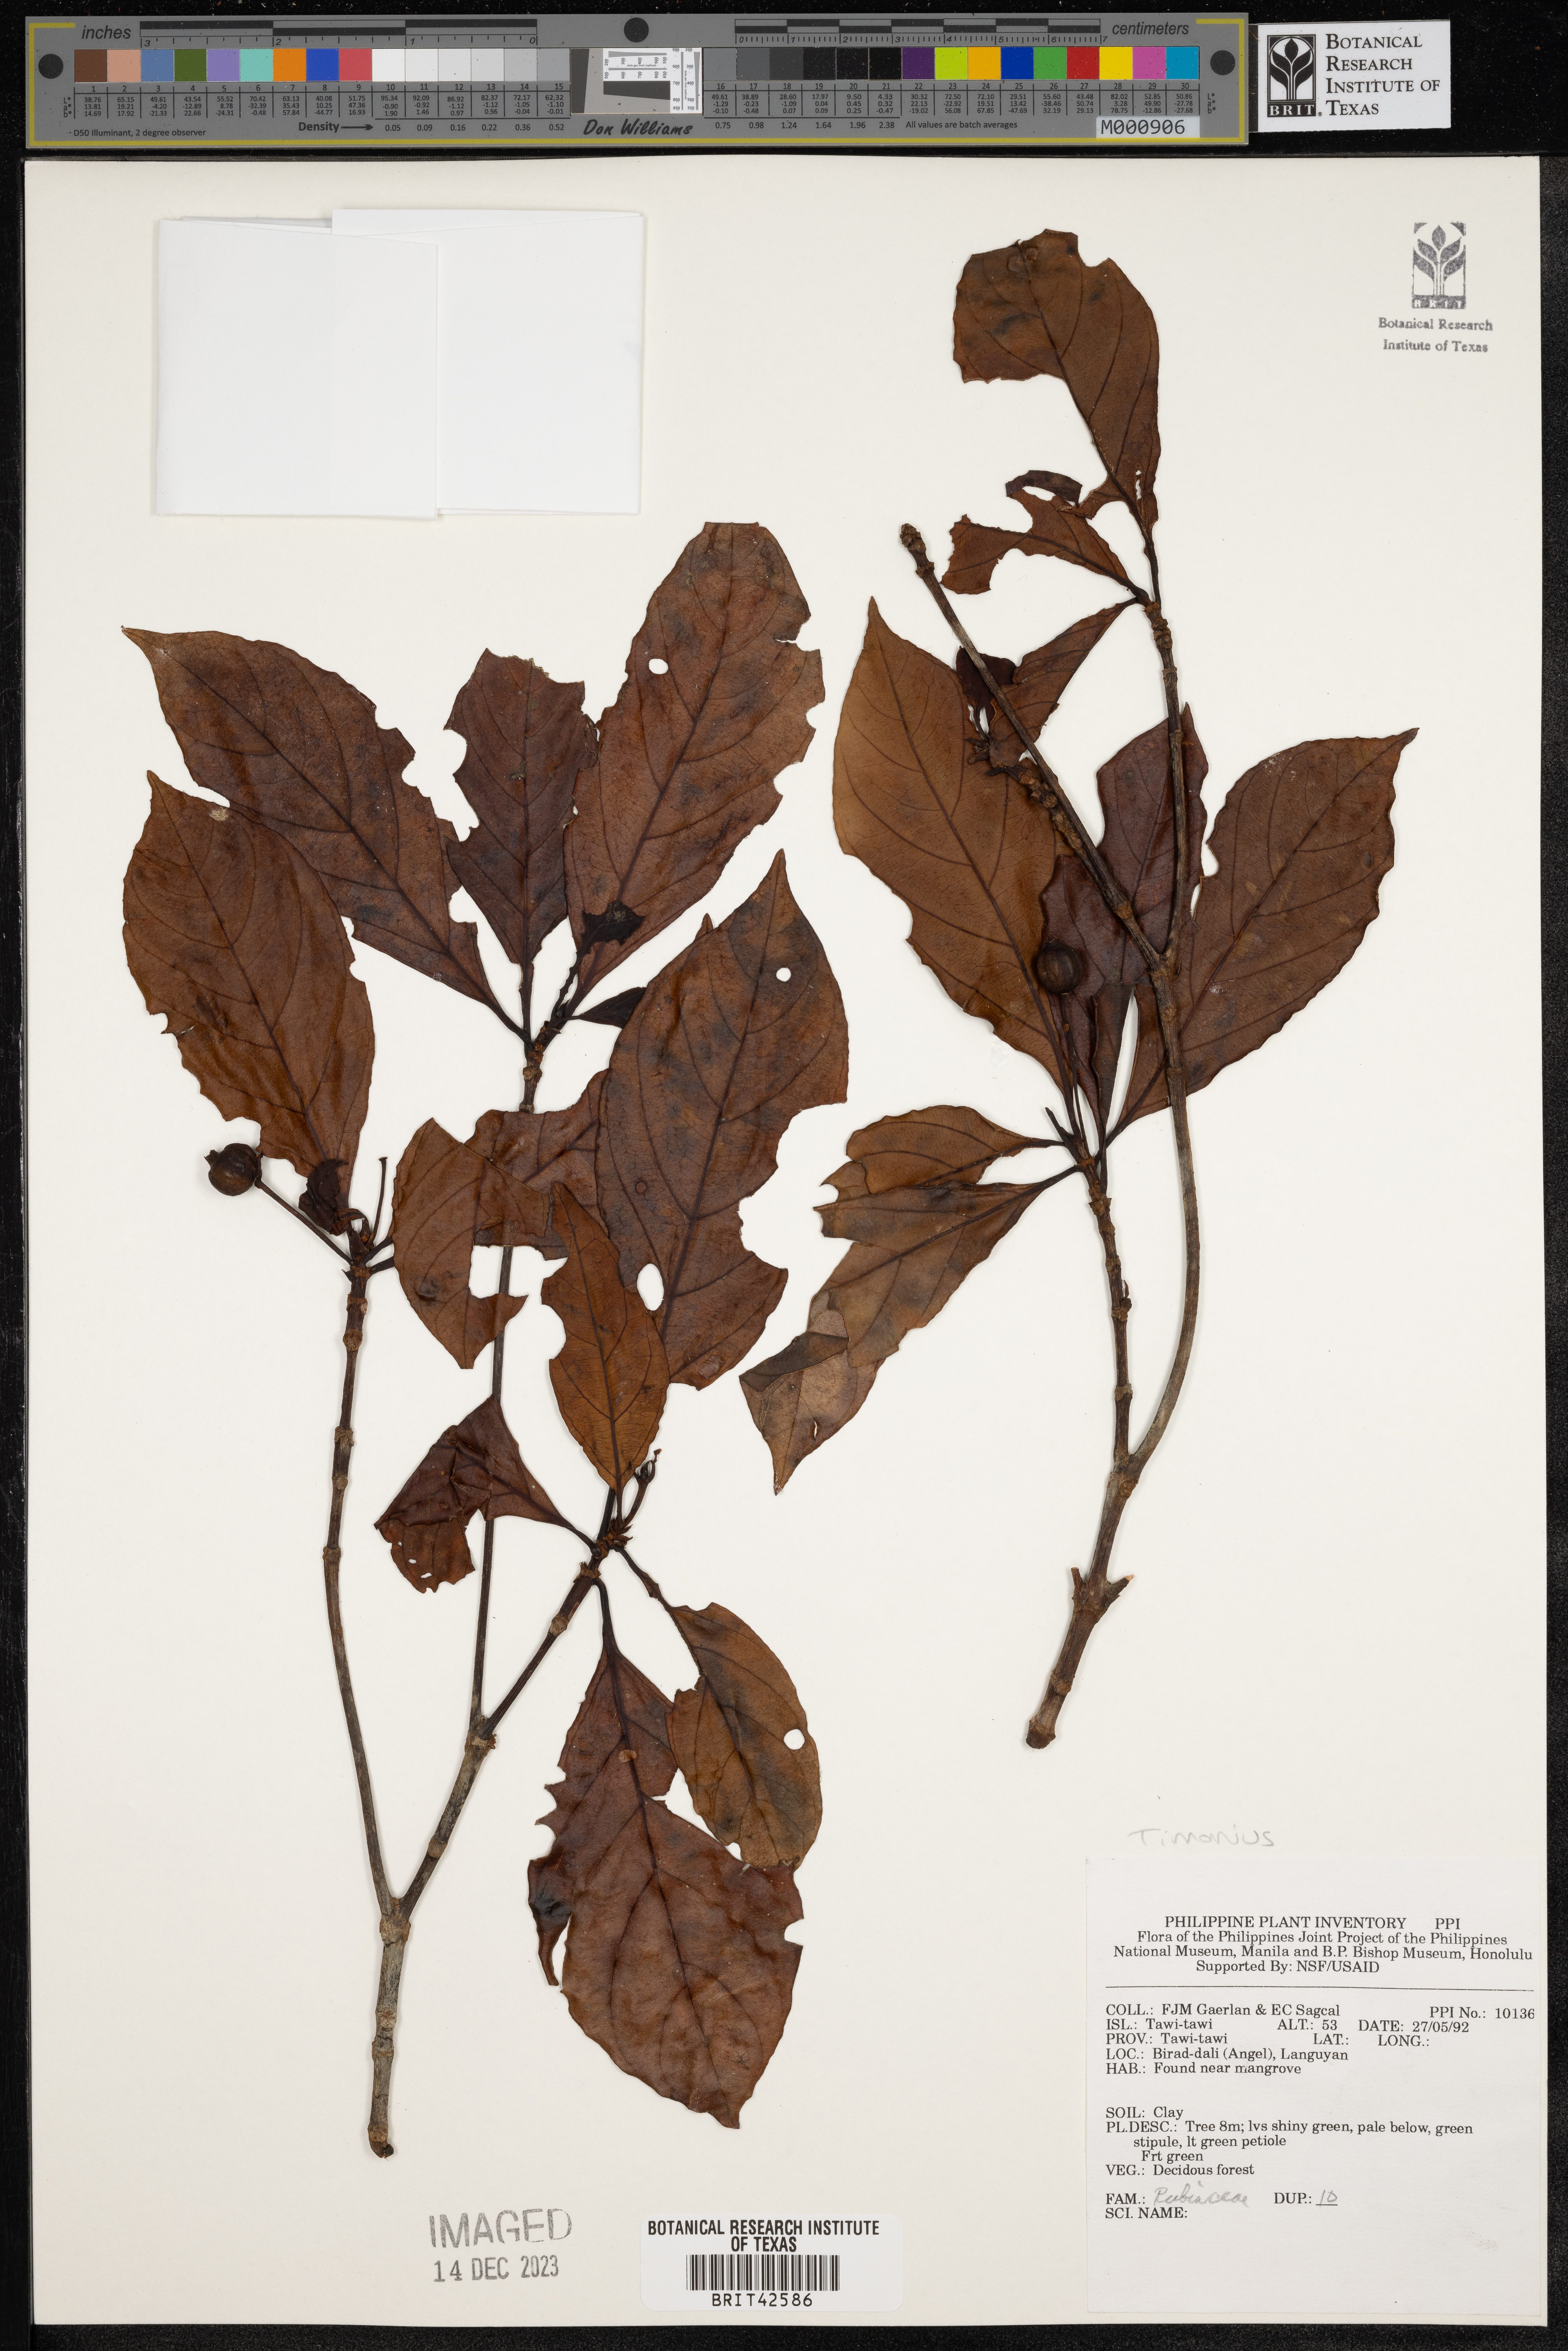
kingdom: Plantae
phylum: Tracheophyta
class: Magnoliopsida
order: Gentianales
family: Rubiaceae
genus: Timonius
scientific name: Timonius
